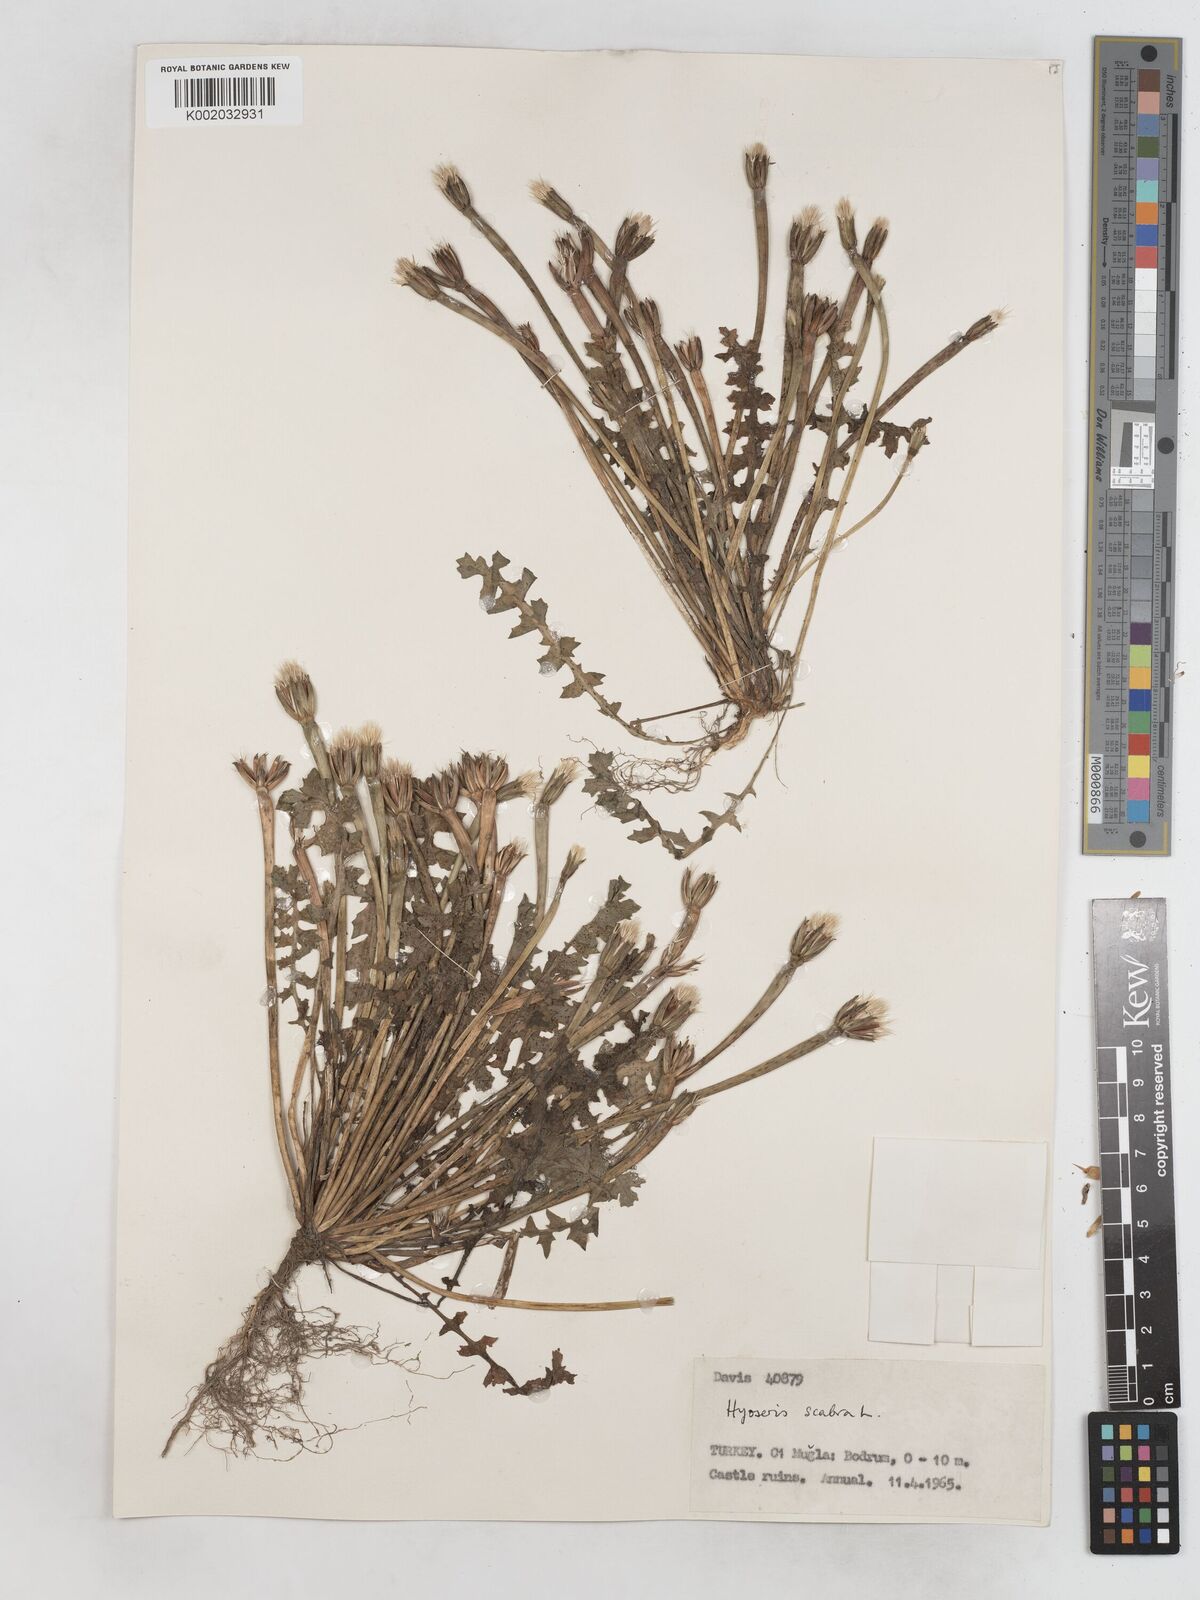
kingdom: Plantae
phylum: Tracheophyta
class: Magnoliopsida
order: Asterales
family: Asteraceae
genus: Hyoseris
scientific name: Hyoseris scabra
